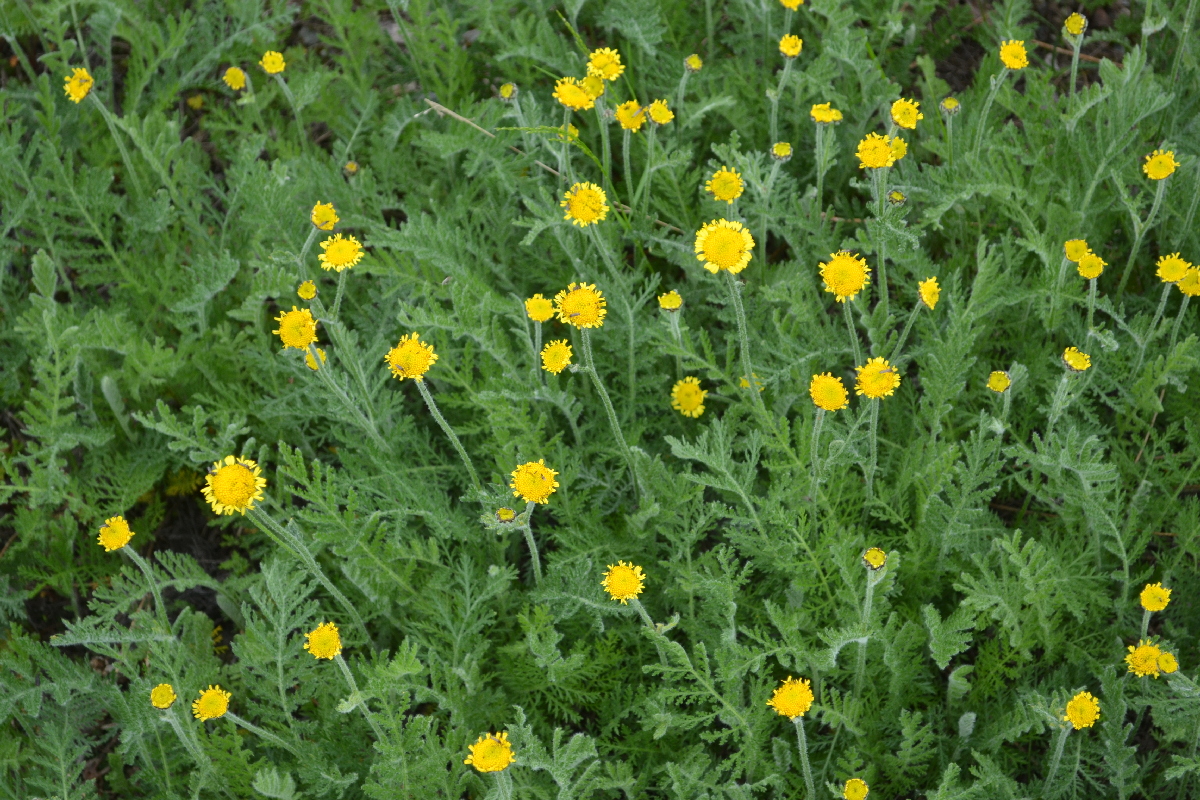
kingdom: Plantae
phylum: Tracheophyta
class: Magnoliopsida
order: Asterales
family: Asteraceae
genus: Tanacetum
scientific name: Tanacetum bipinnatum
